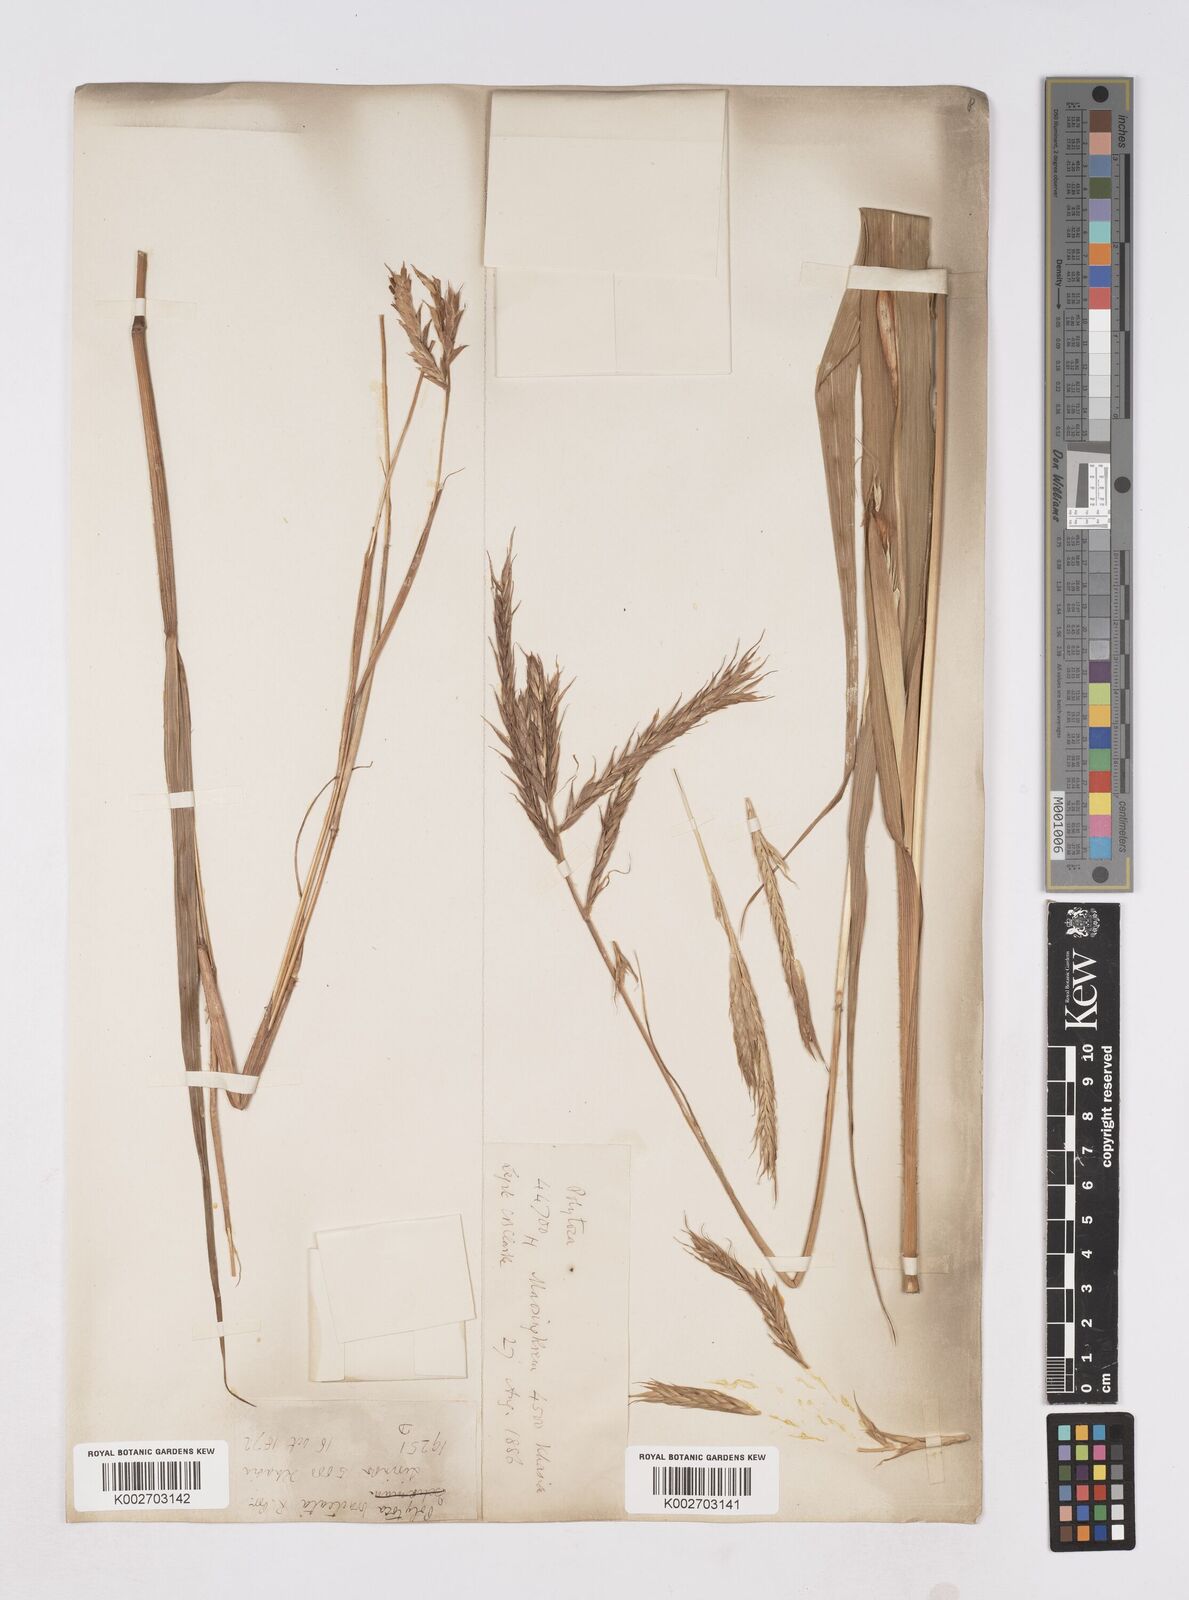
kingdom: Plantae
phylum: Tracheophyta
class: Liliopsida
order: Poales
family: Poaceae
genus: Polytoca
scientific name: Polytoca digitata
